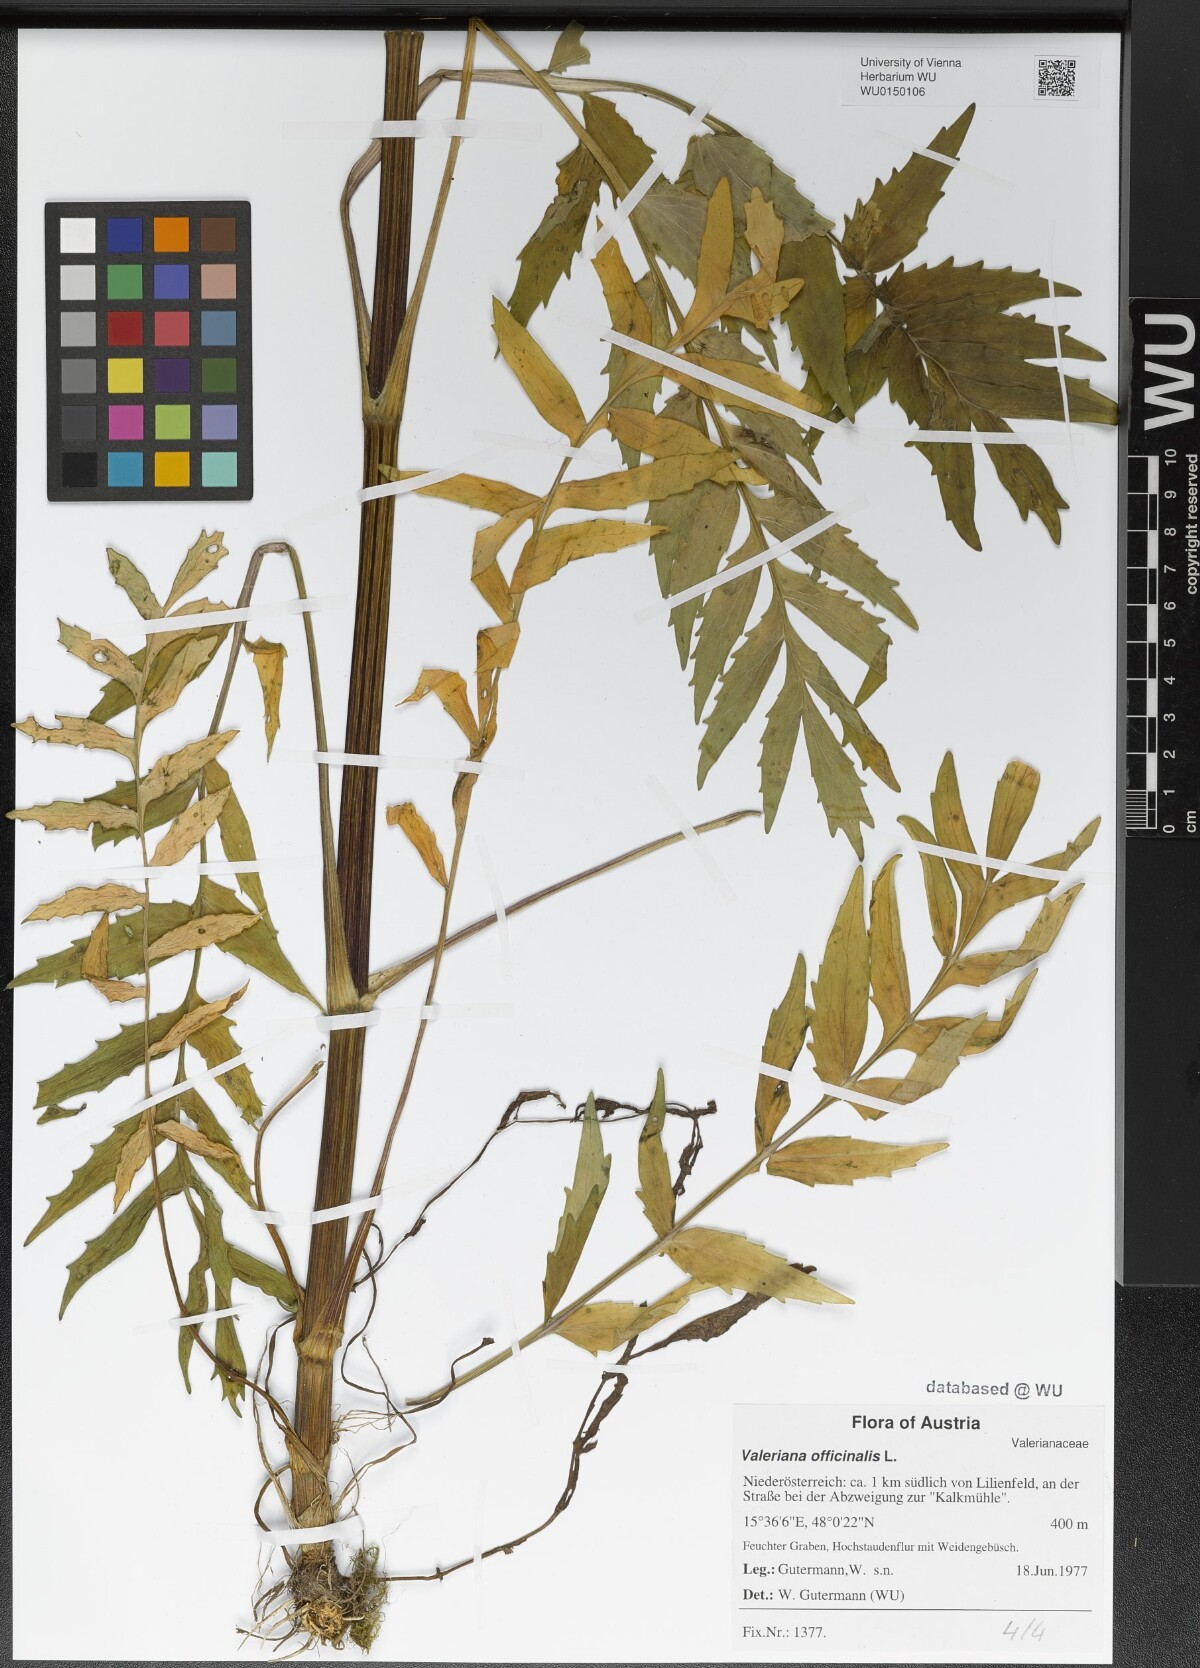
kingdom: Plantae
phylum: Tracheophyta
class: Magnoliopsida
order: Dipsacales
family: Caprifoliaceae
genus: Valeriana
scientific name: Valeriana officinalis
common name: Common valerian
